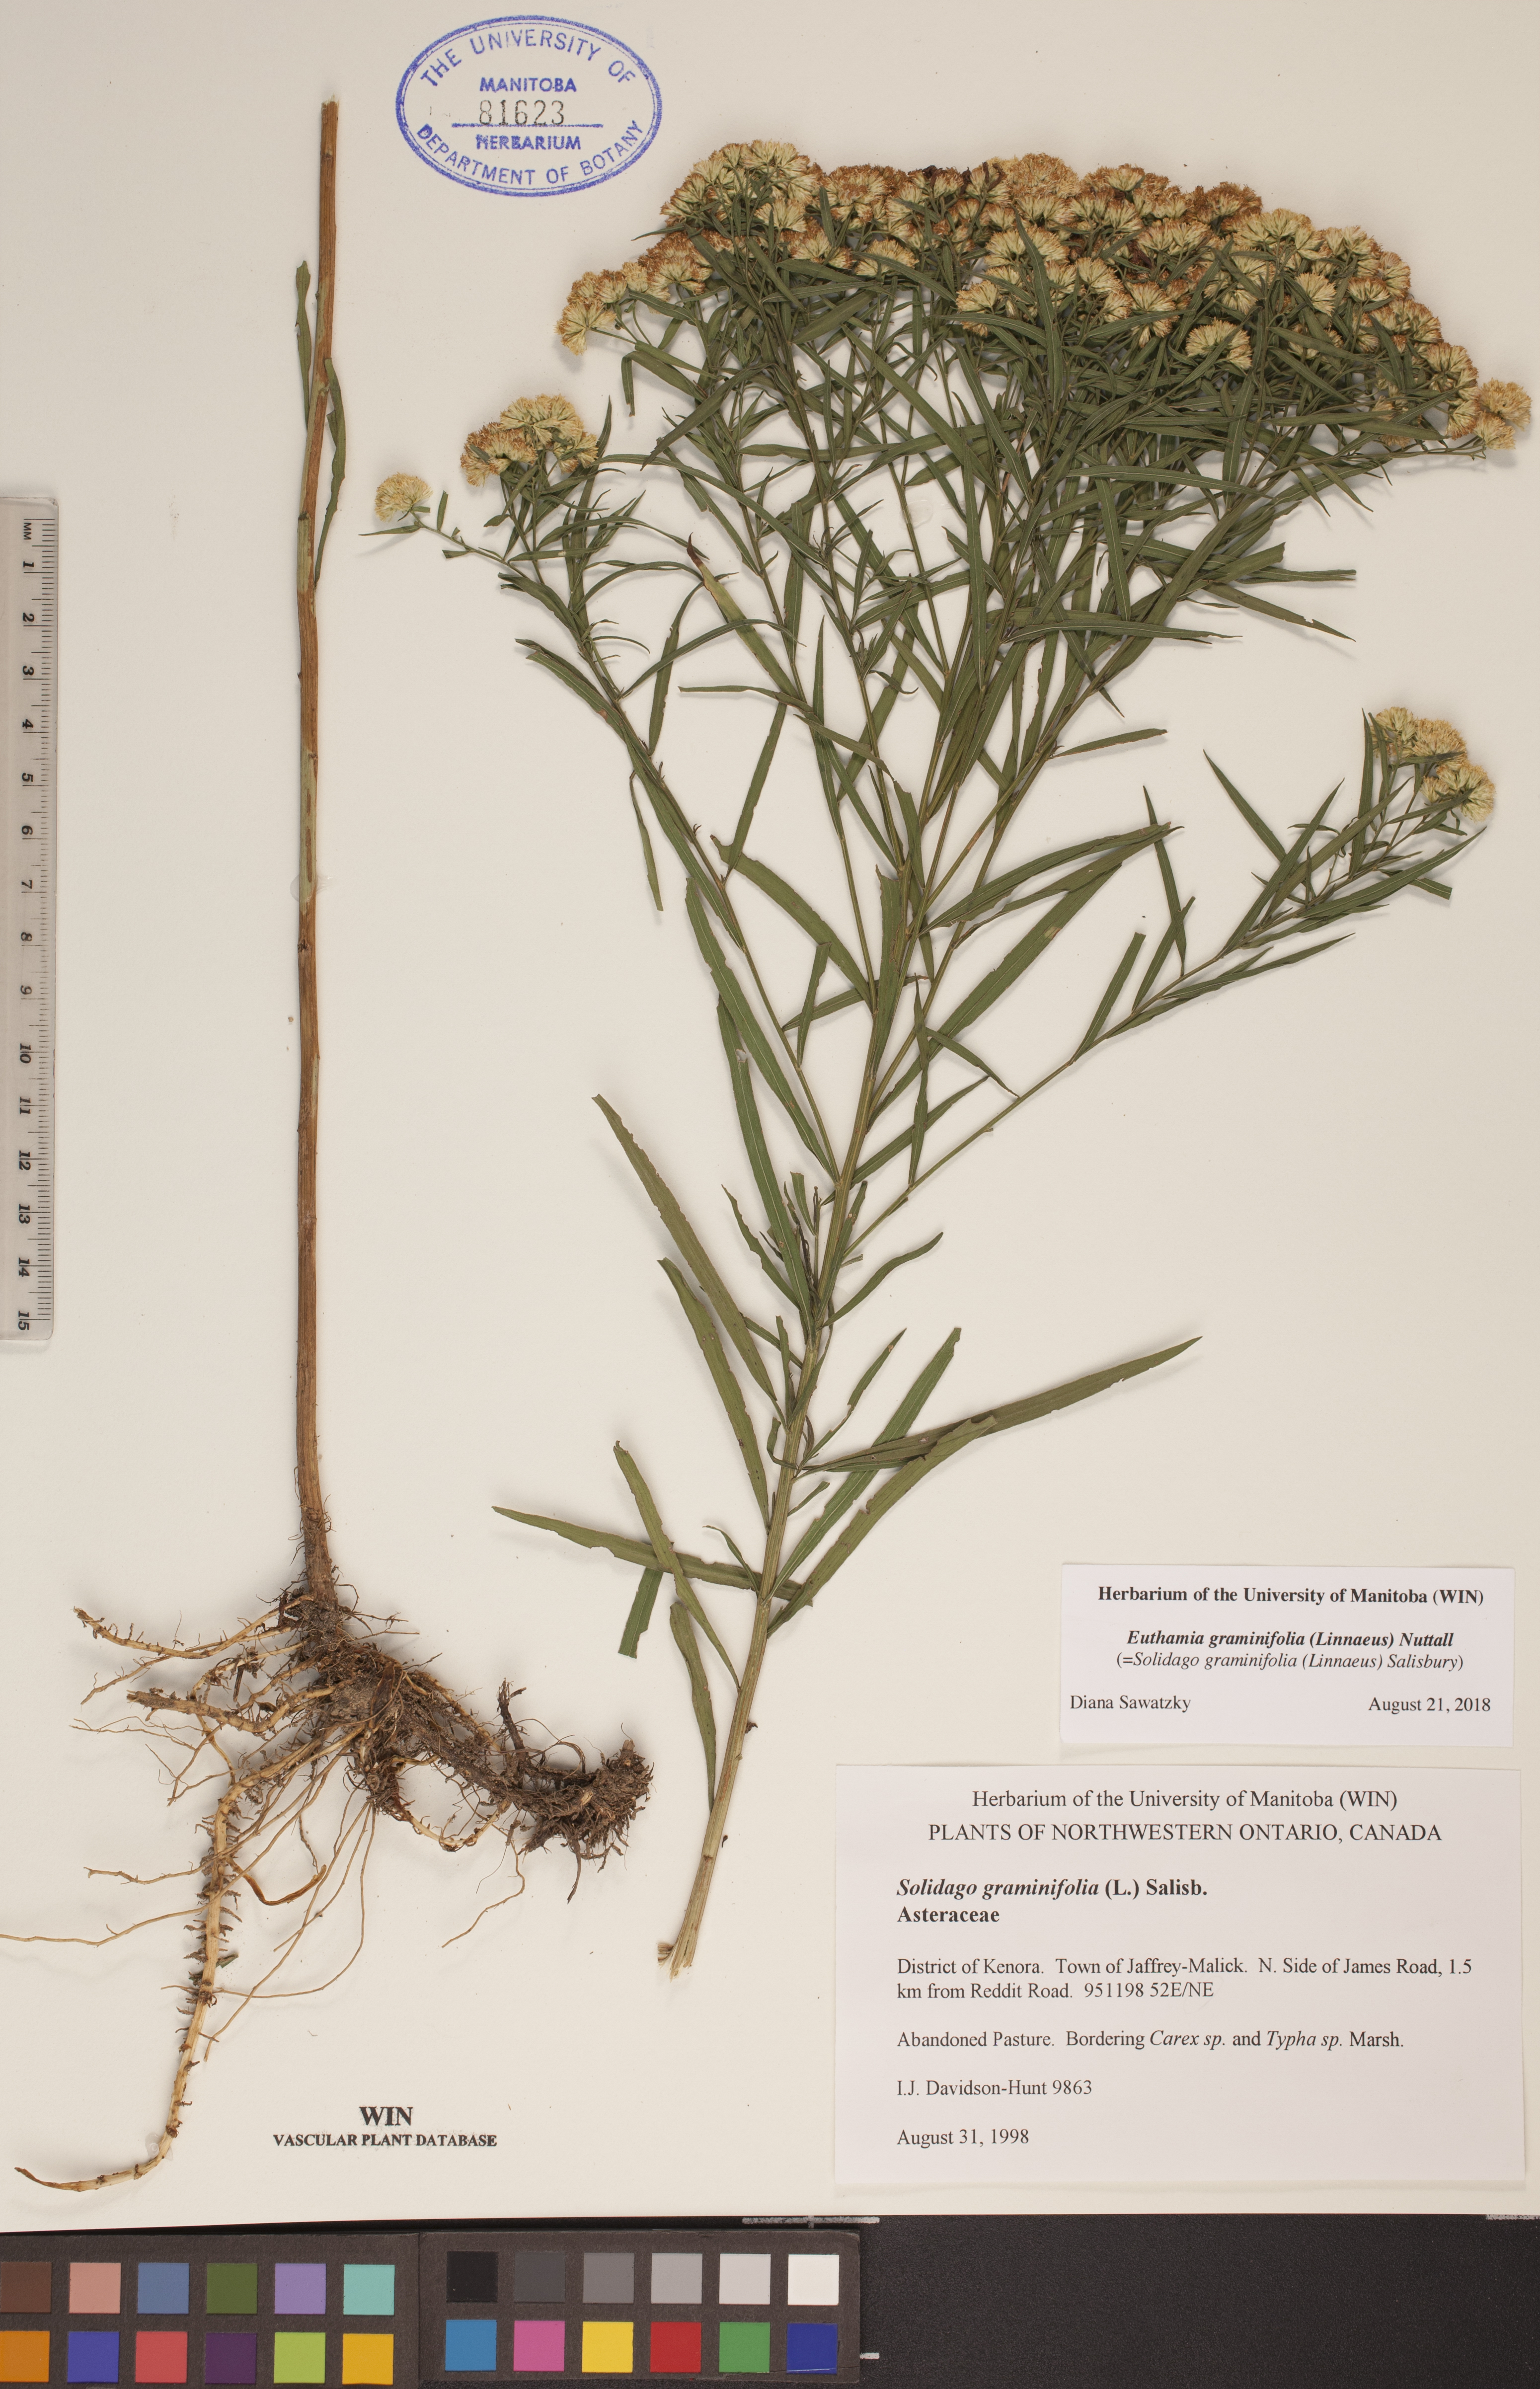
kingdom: Plantae
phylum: Tracheophyta
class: Magnoliopsida
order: Asterales
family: Asteraceae
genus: Euthamia
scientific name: Euthamia graminifolia
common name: Common goldentop
